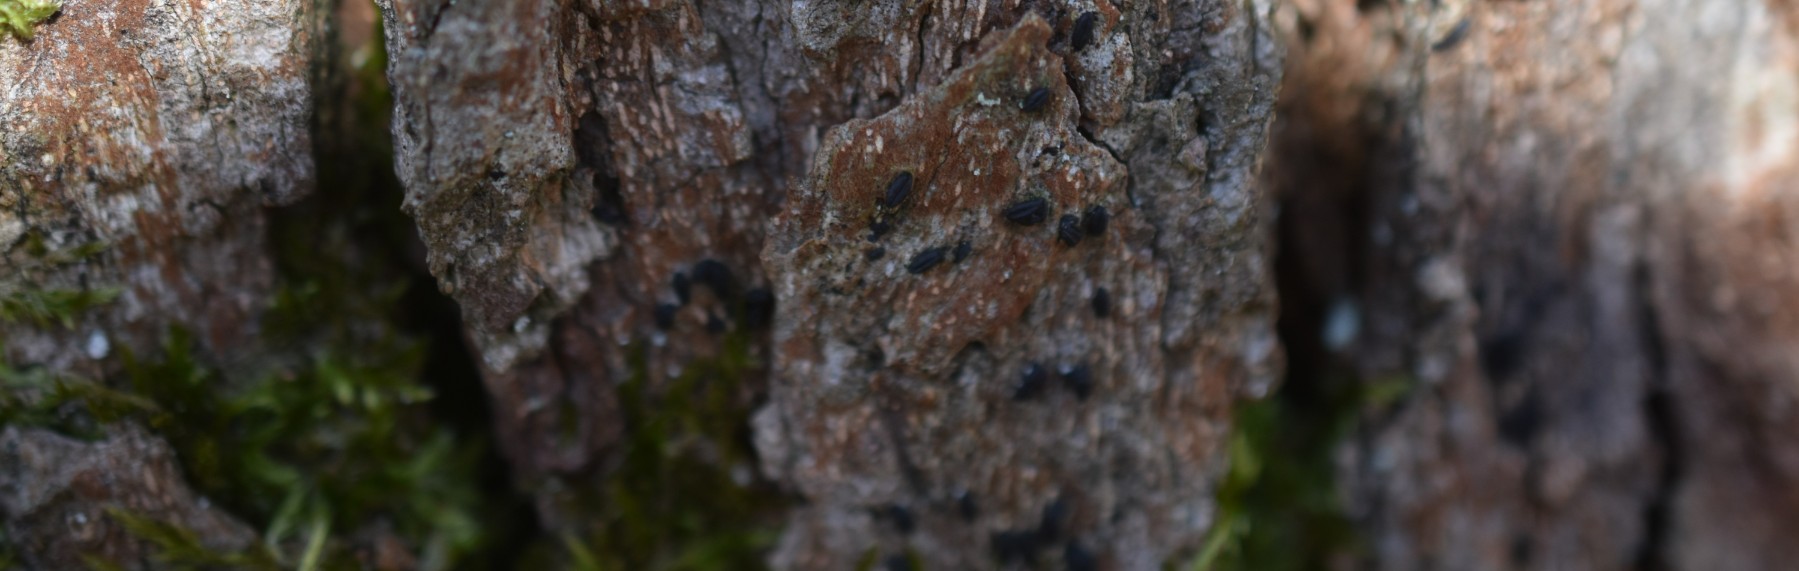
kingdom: Fungi
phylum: Ascomycota
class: Dothideomycetes
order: Hysteriales
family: Hysteriaceae
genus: Hysterium
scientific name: Hysterium pulicare
